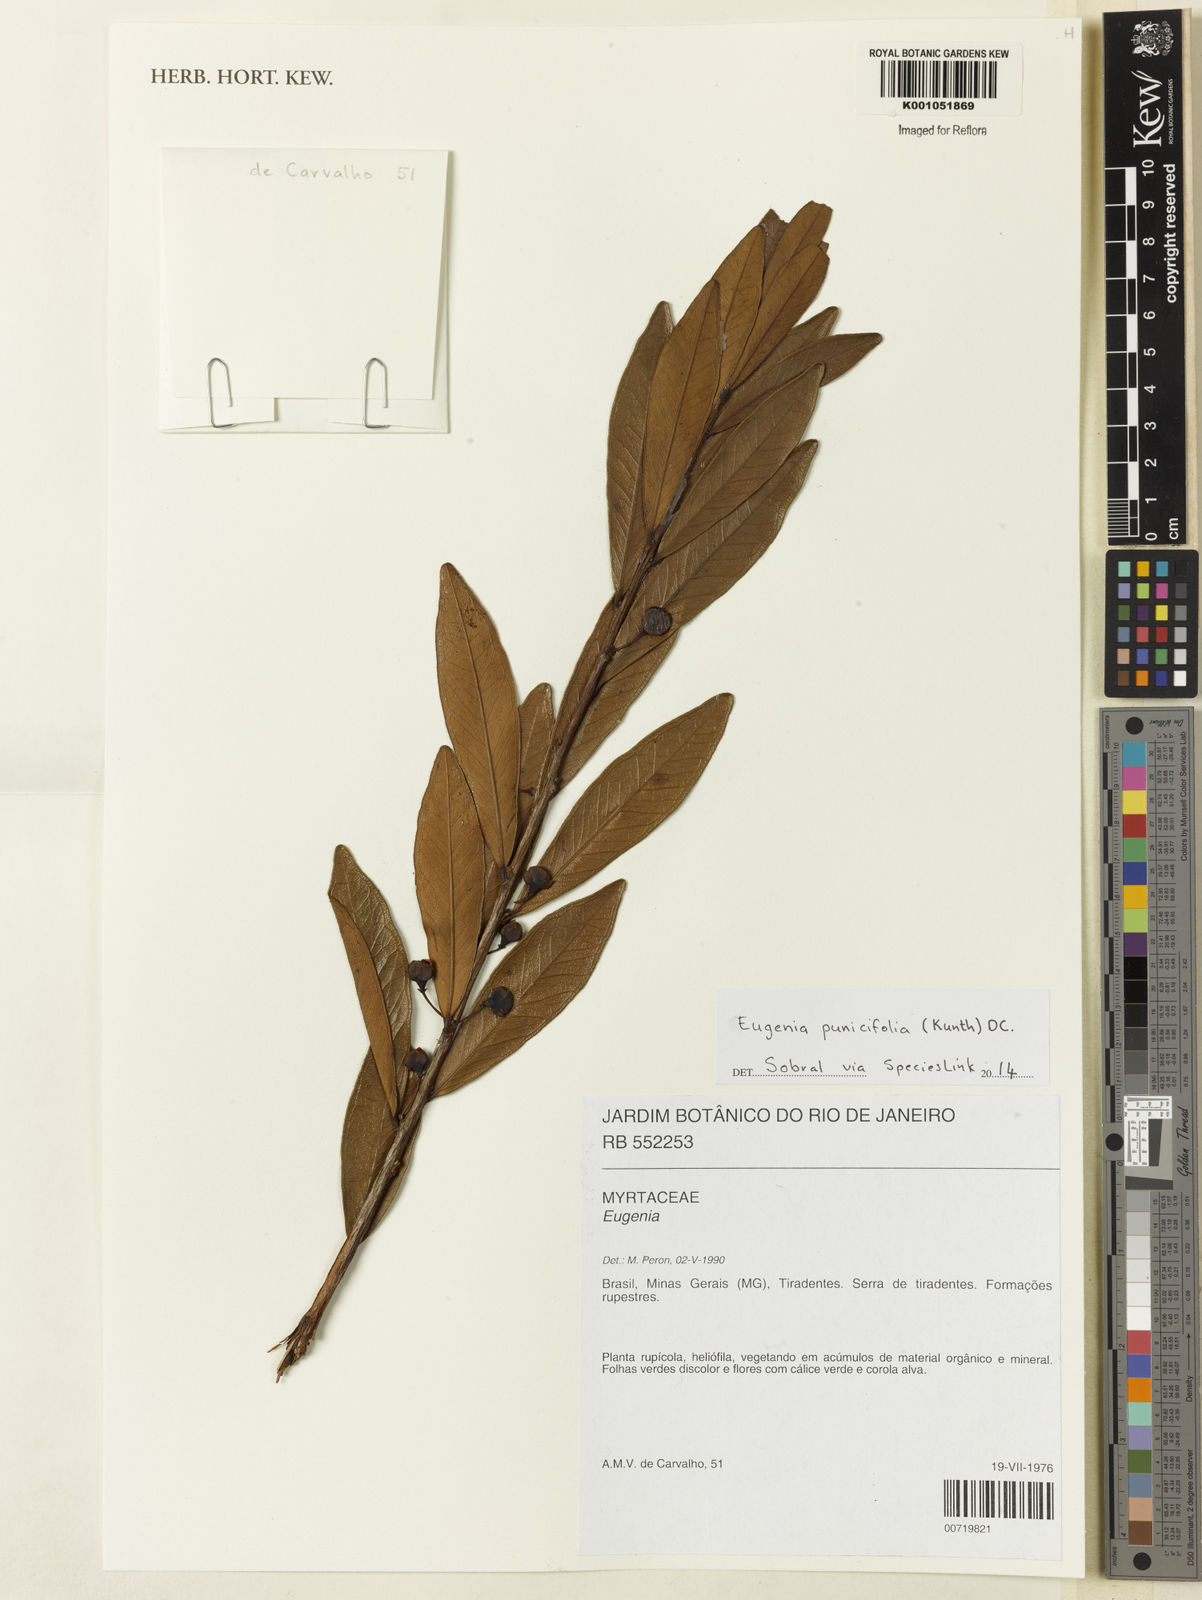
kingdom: Plantae
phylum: Tracheophyta
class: Magnoliopsida
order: Myrtales
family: Myrtaceae
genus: Eugenia
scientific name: Eugenia punicifolia
